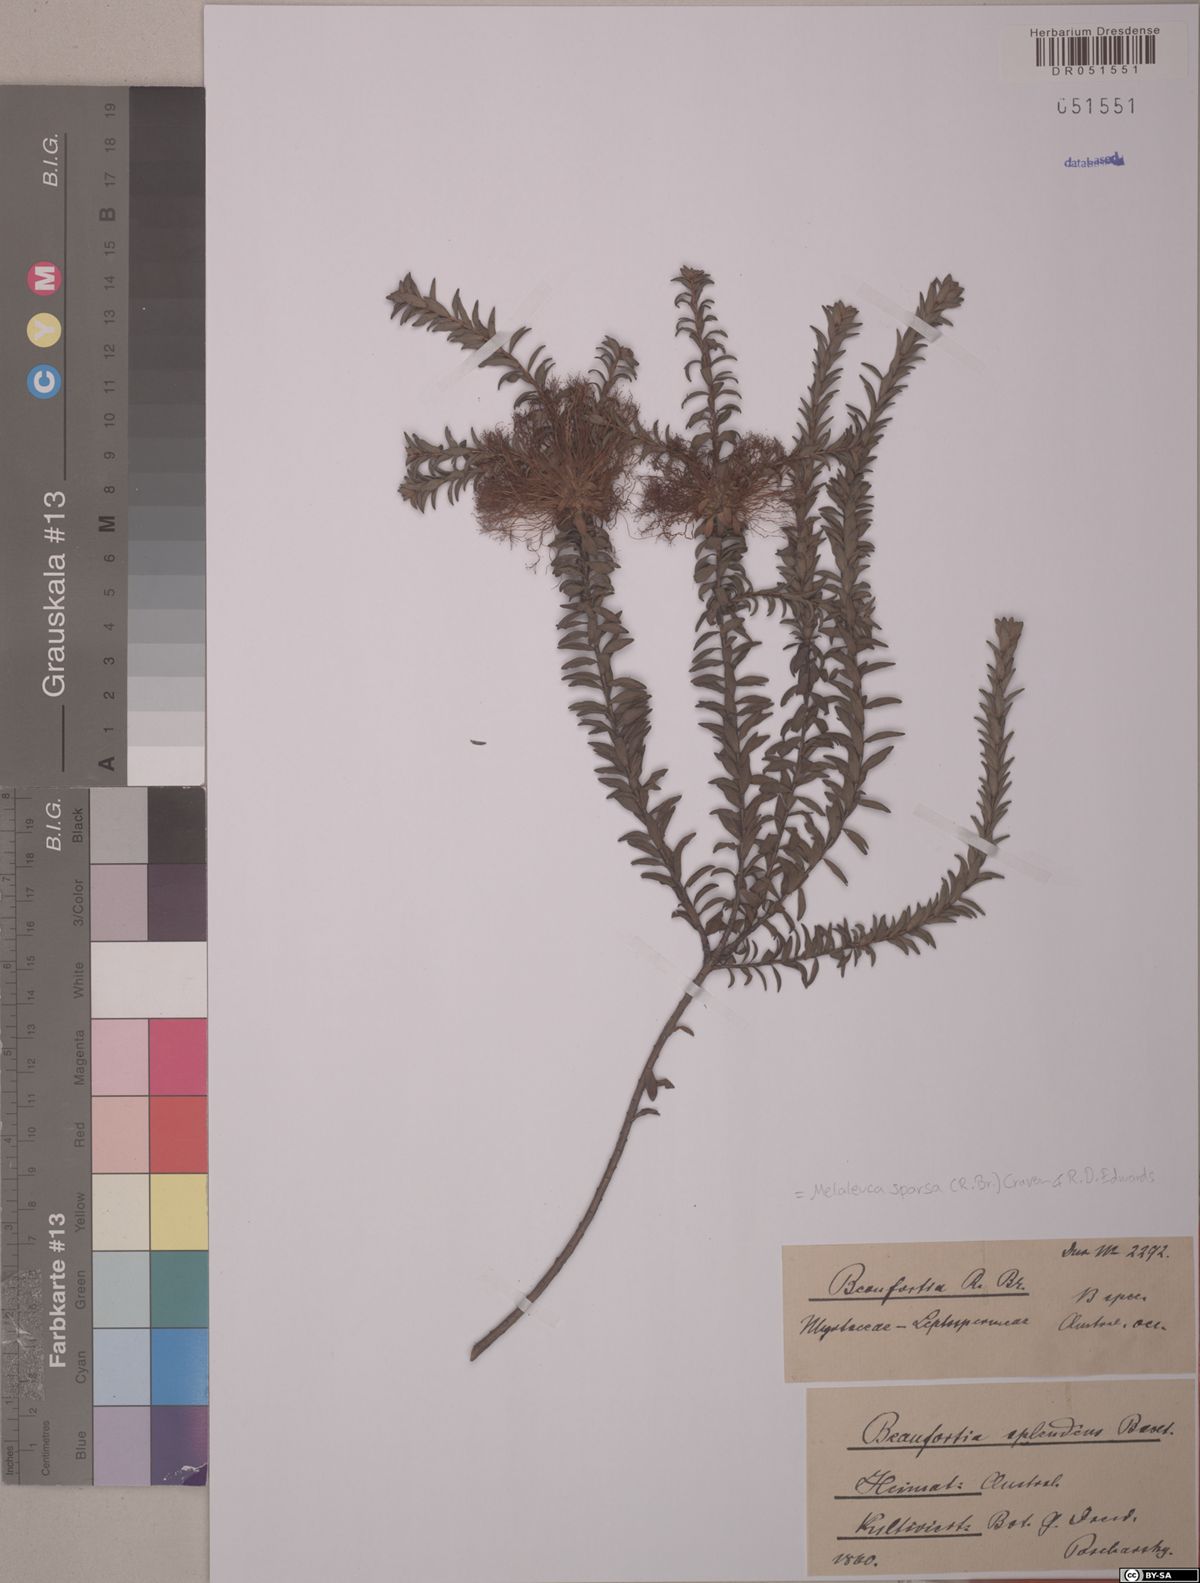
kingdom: Plantae
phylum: Tracheophyta
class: Magnoliopsida
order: Myrtales
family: Myrtaceae
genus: Melaleuca
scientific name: Melaleuca sparsa
